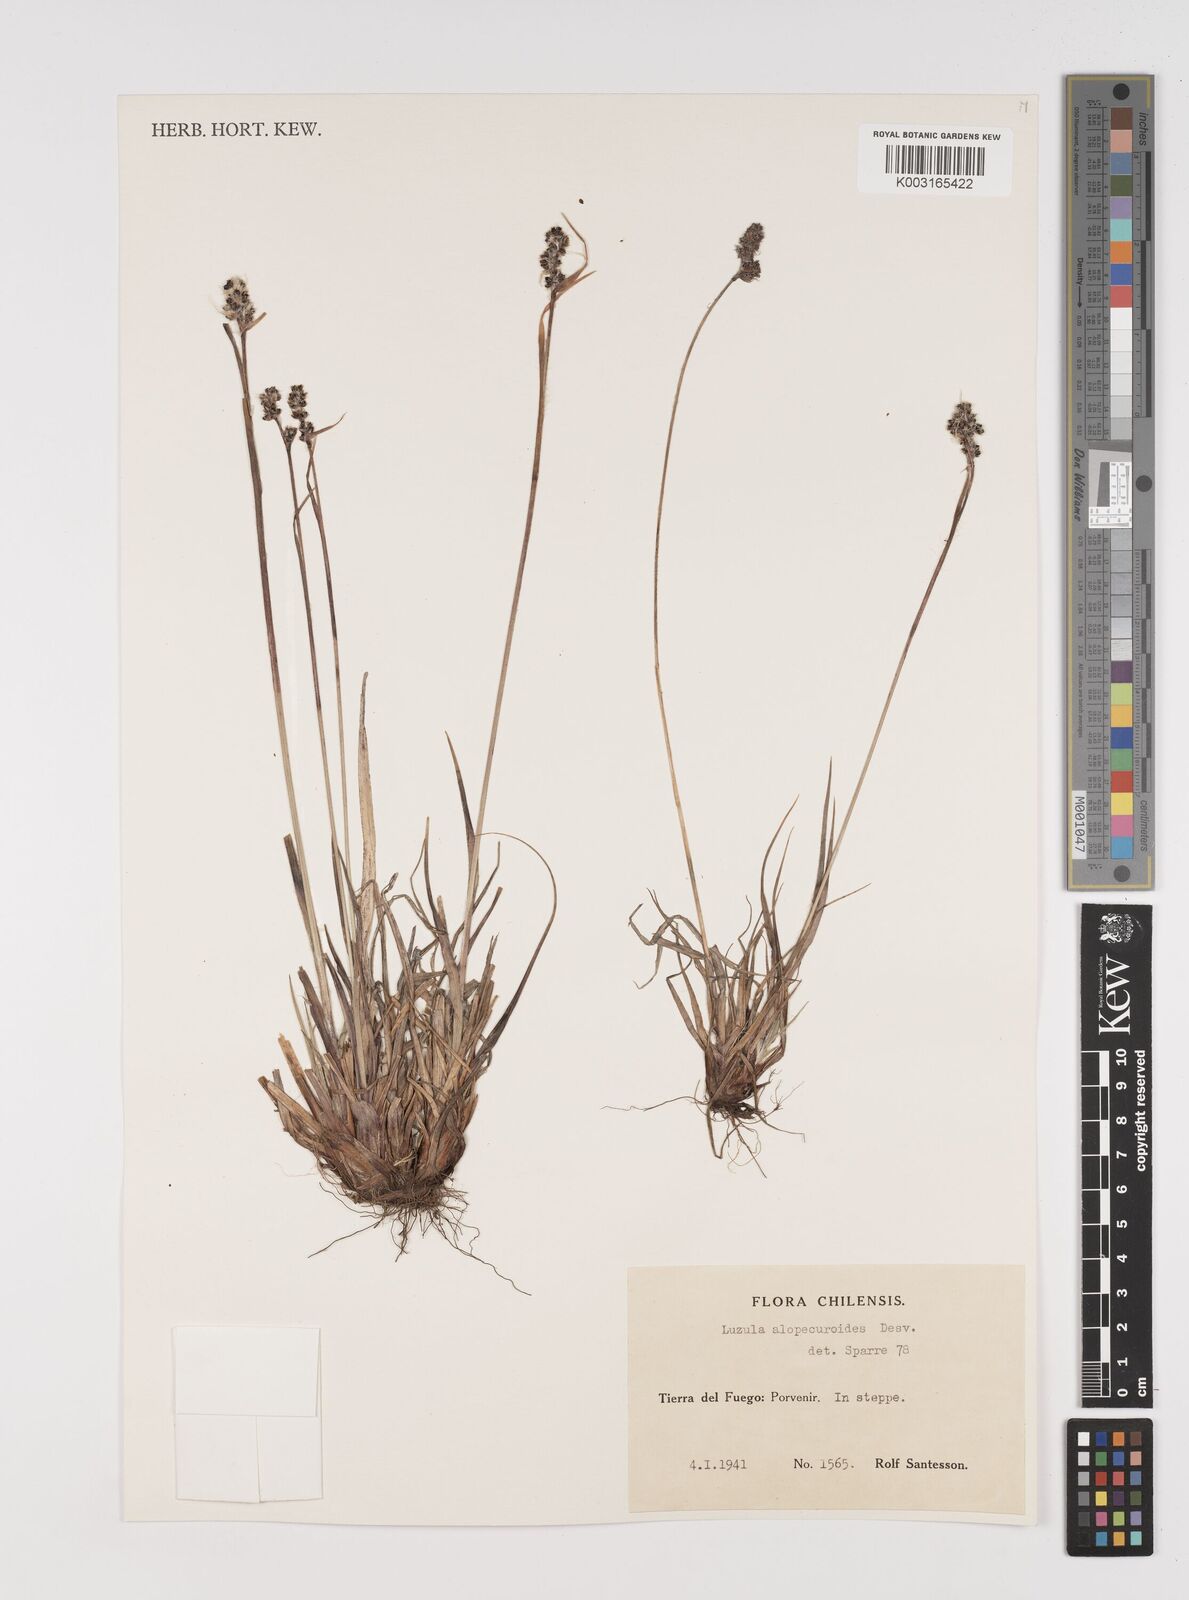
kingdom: Plantae
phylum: Tracheophyta
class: Liliopsida
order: Poales
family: Juncaceae
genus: Luzula
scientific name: Luzula alopecurus
